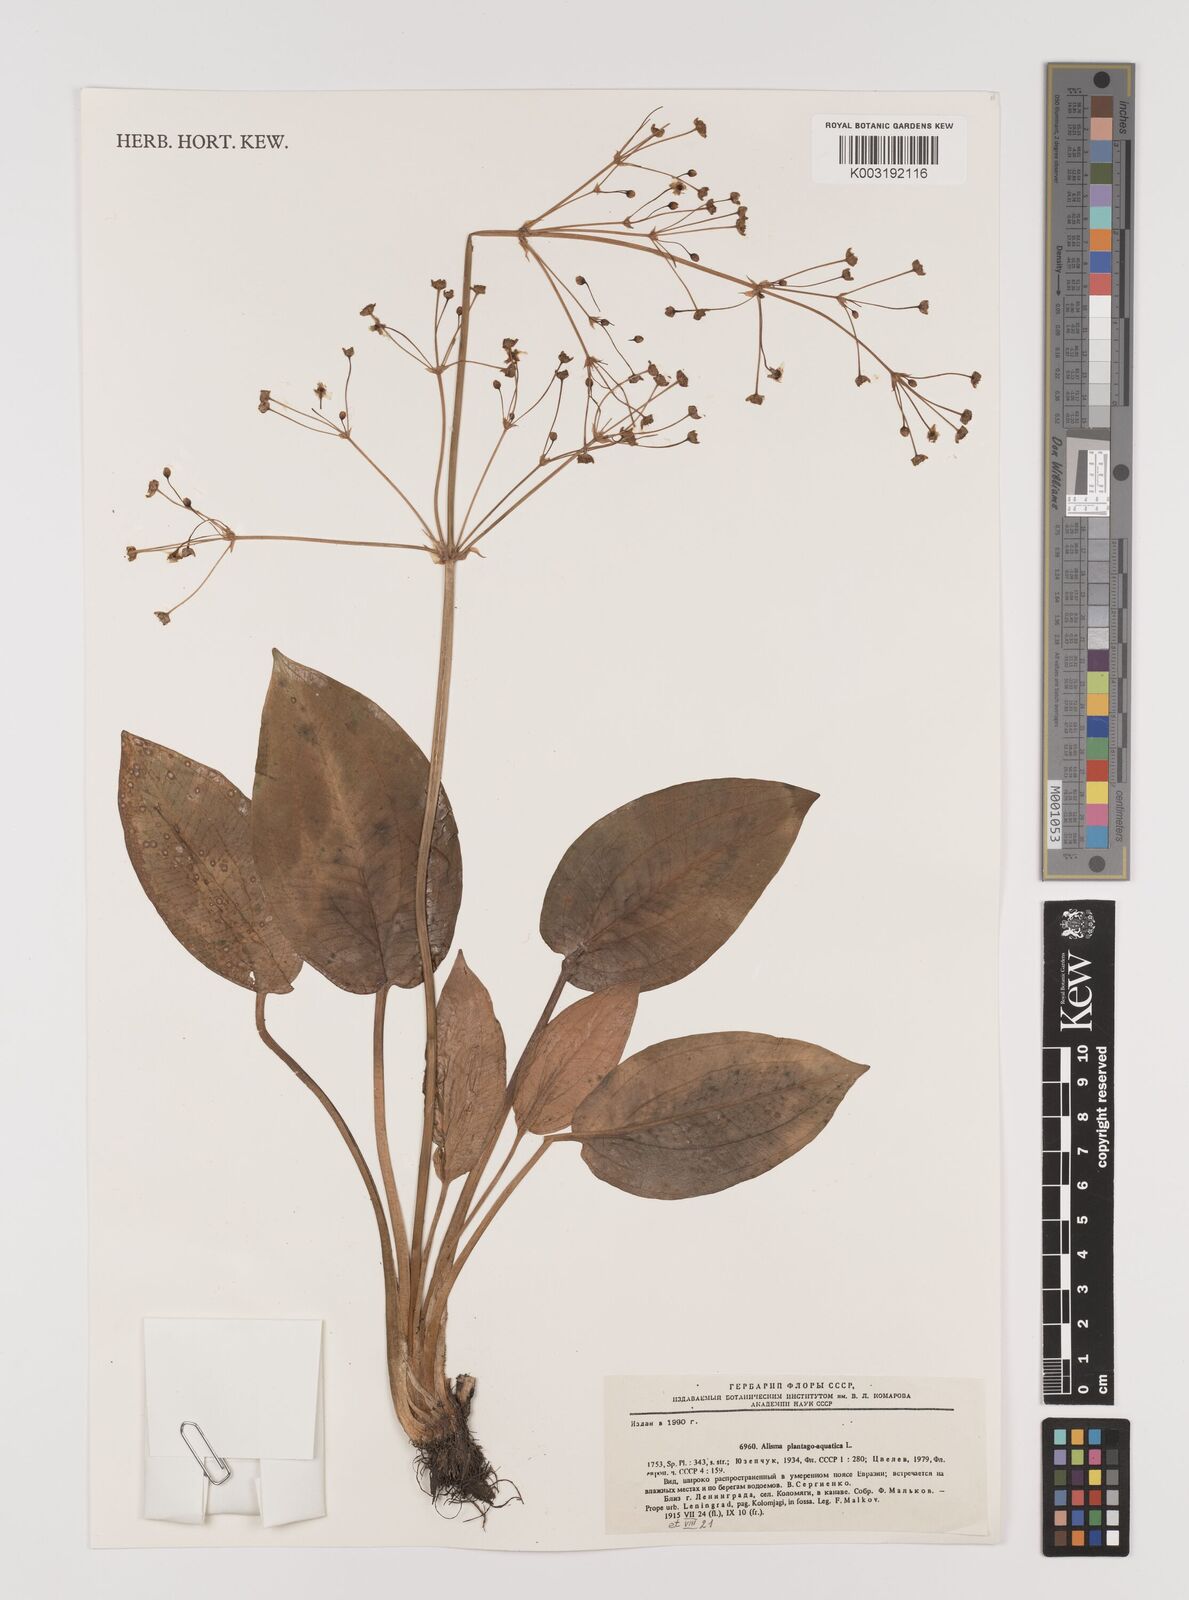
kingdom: Plantae
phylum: Tracheophyta
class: Liliopsida
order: Alismatales
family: Alismataceae
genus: Alisma
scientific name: Alisma plantago-aquatica
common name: Water-plantain
